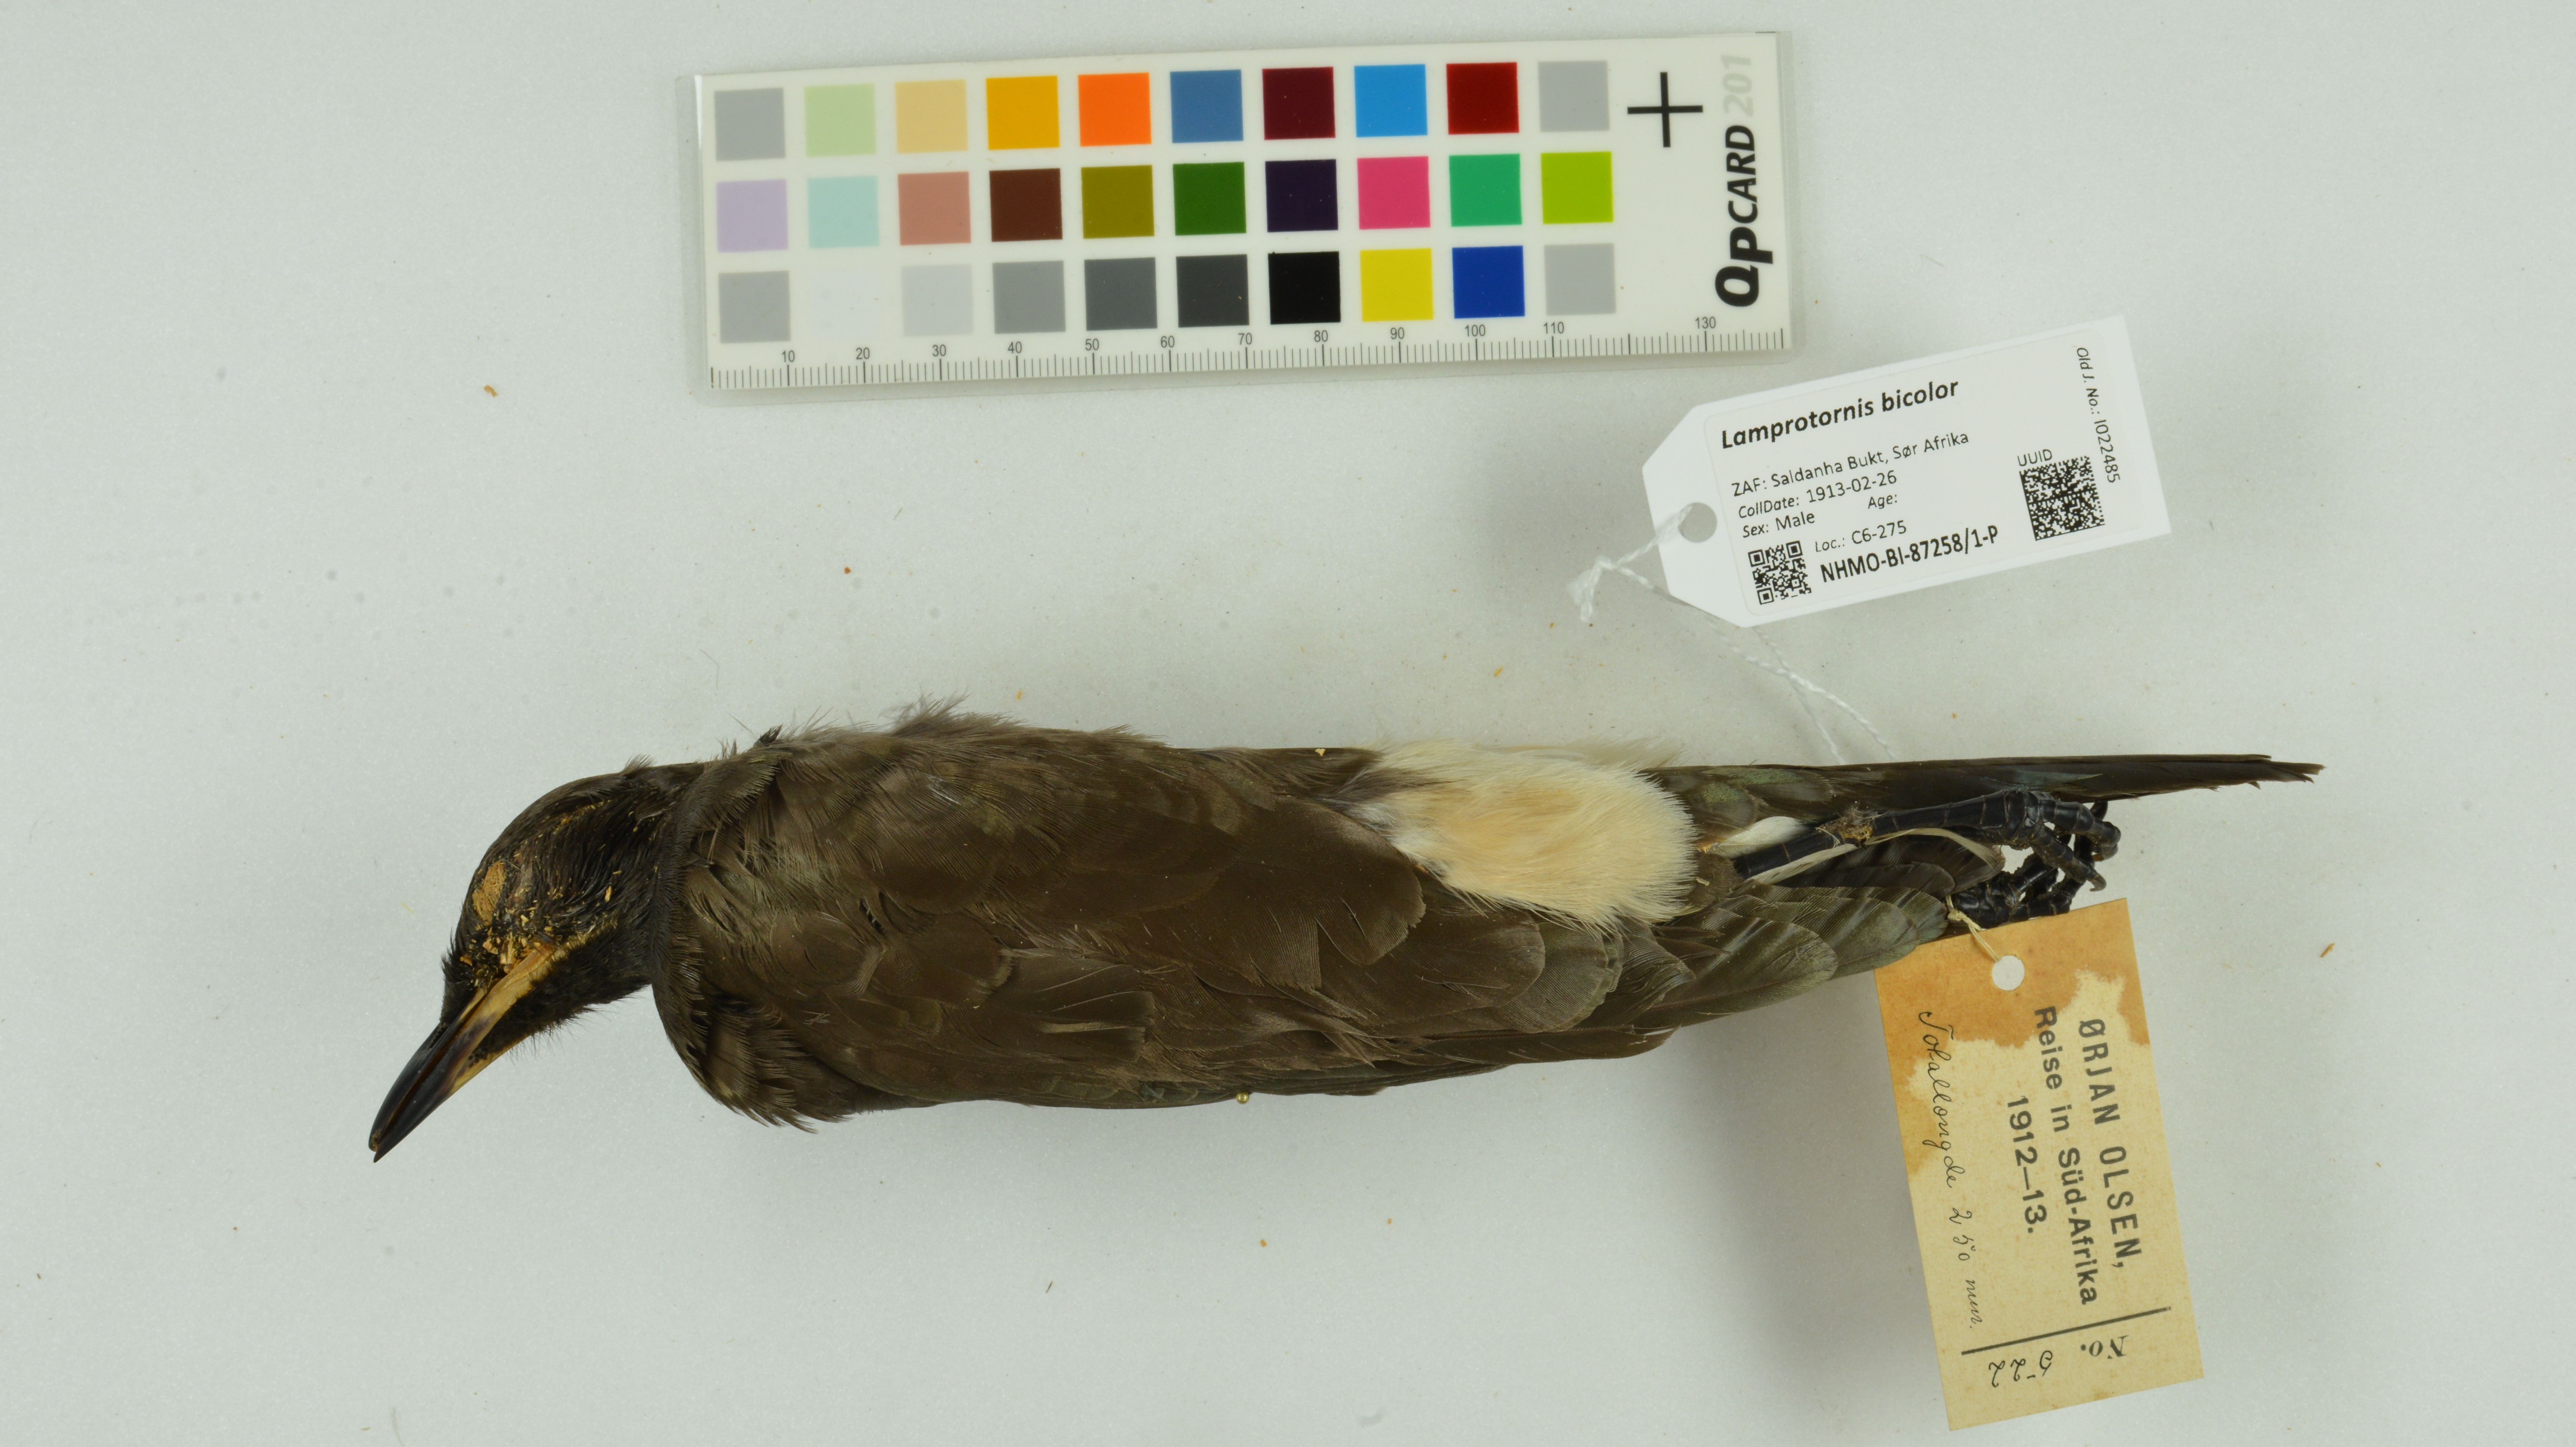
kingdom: Animalia
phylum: Chordata
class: Aves
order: Passeriformes
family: Sturnidae
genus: Lamprotornis
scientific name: Lamprotornis bicolor
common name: Pied starling
